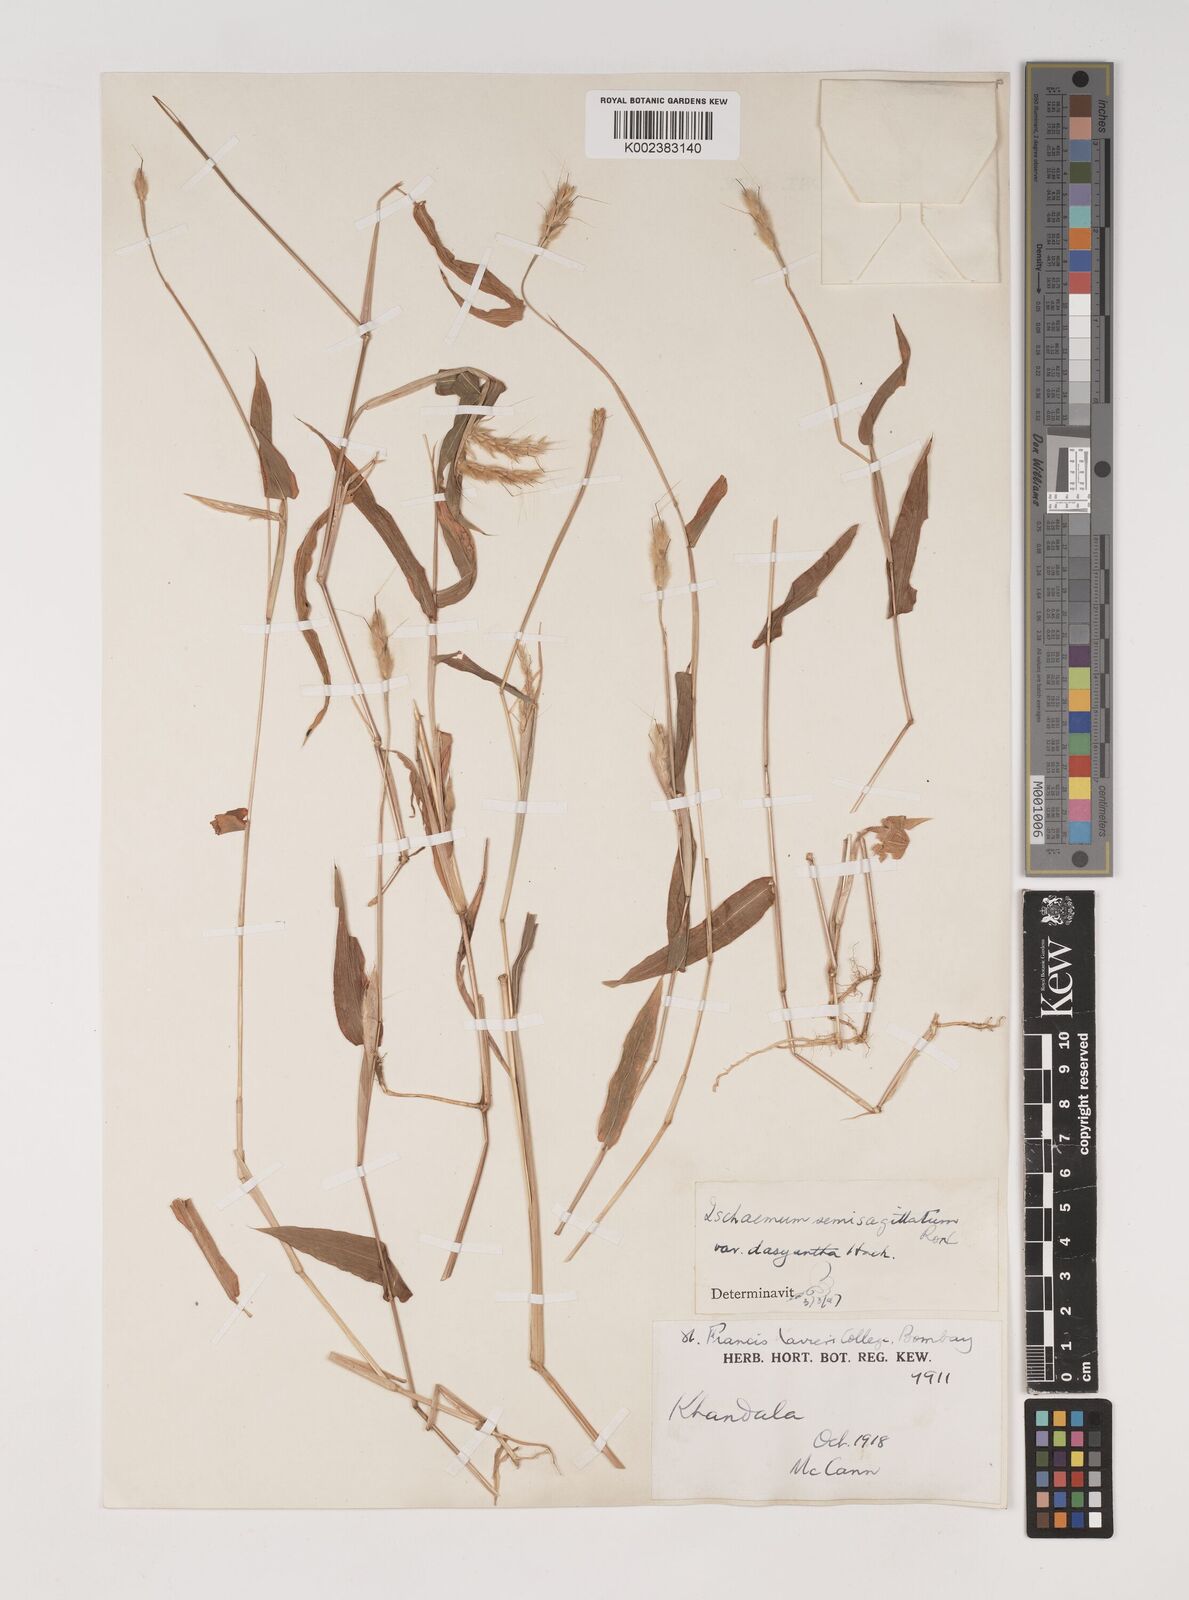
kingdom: Plantae
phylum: Tracheophyta
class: Liliopsida
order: Poales
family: Poaceae
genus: Ischaemum
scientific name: Ischaemum semisagittatum
